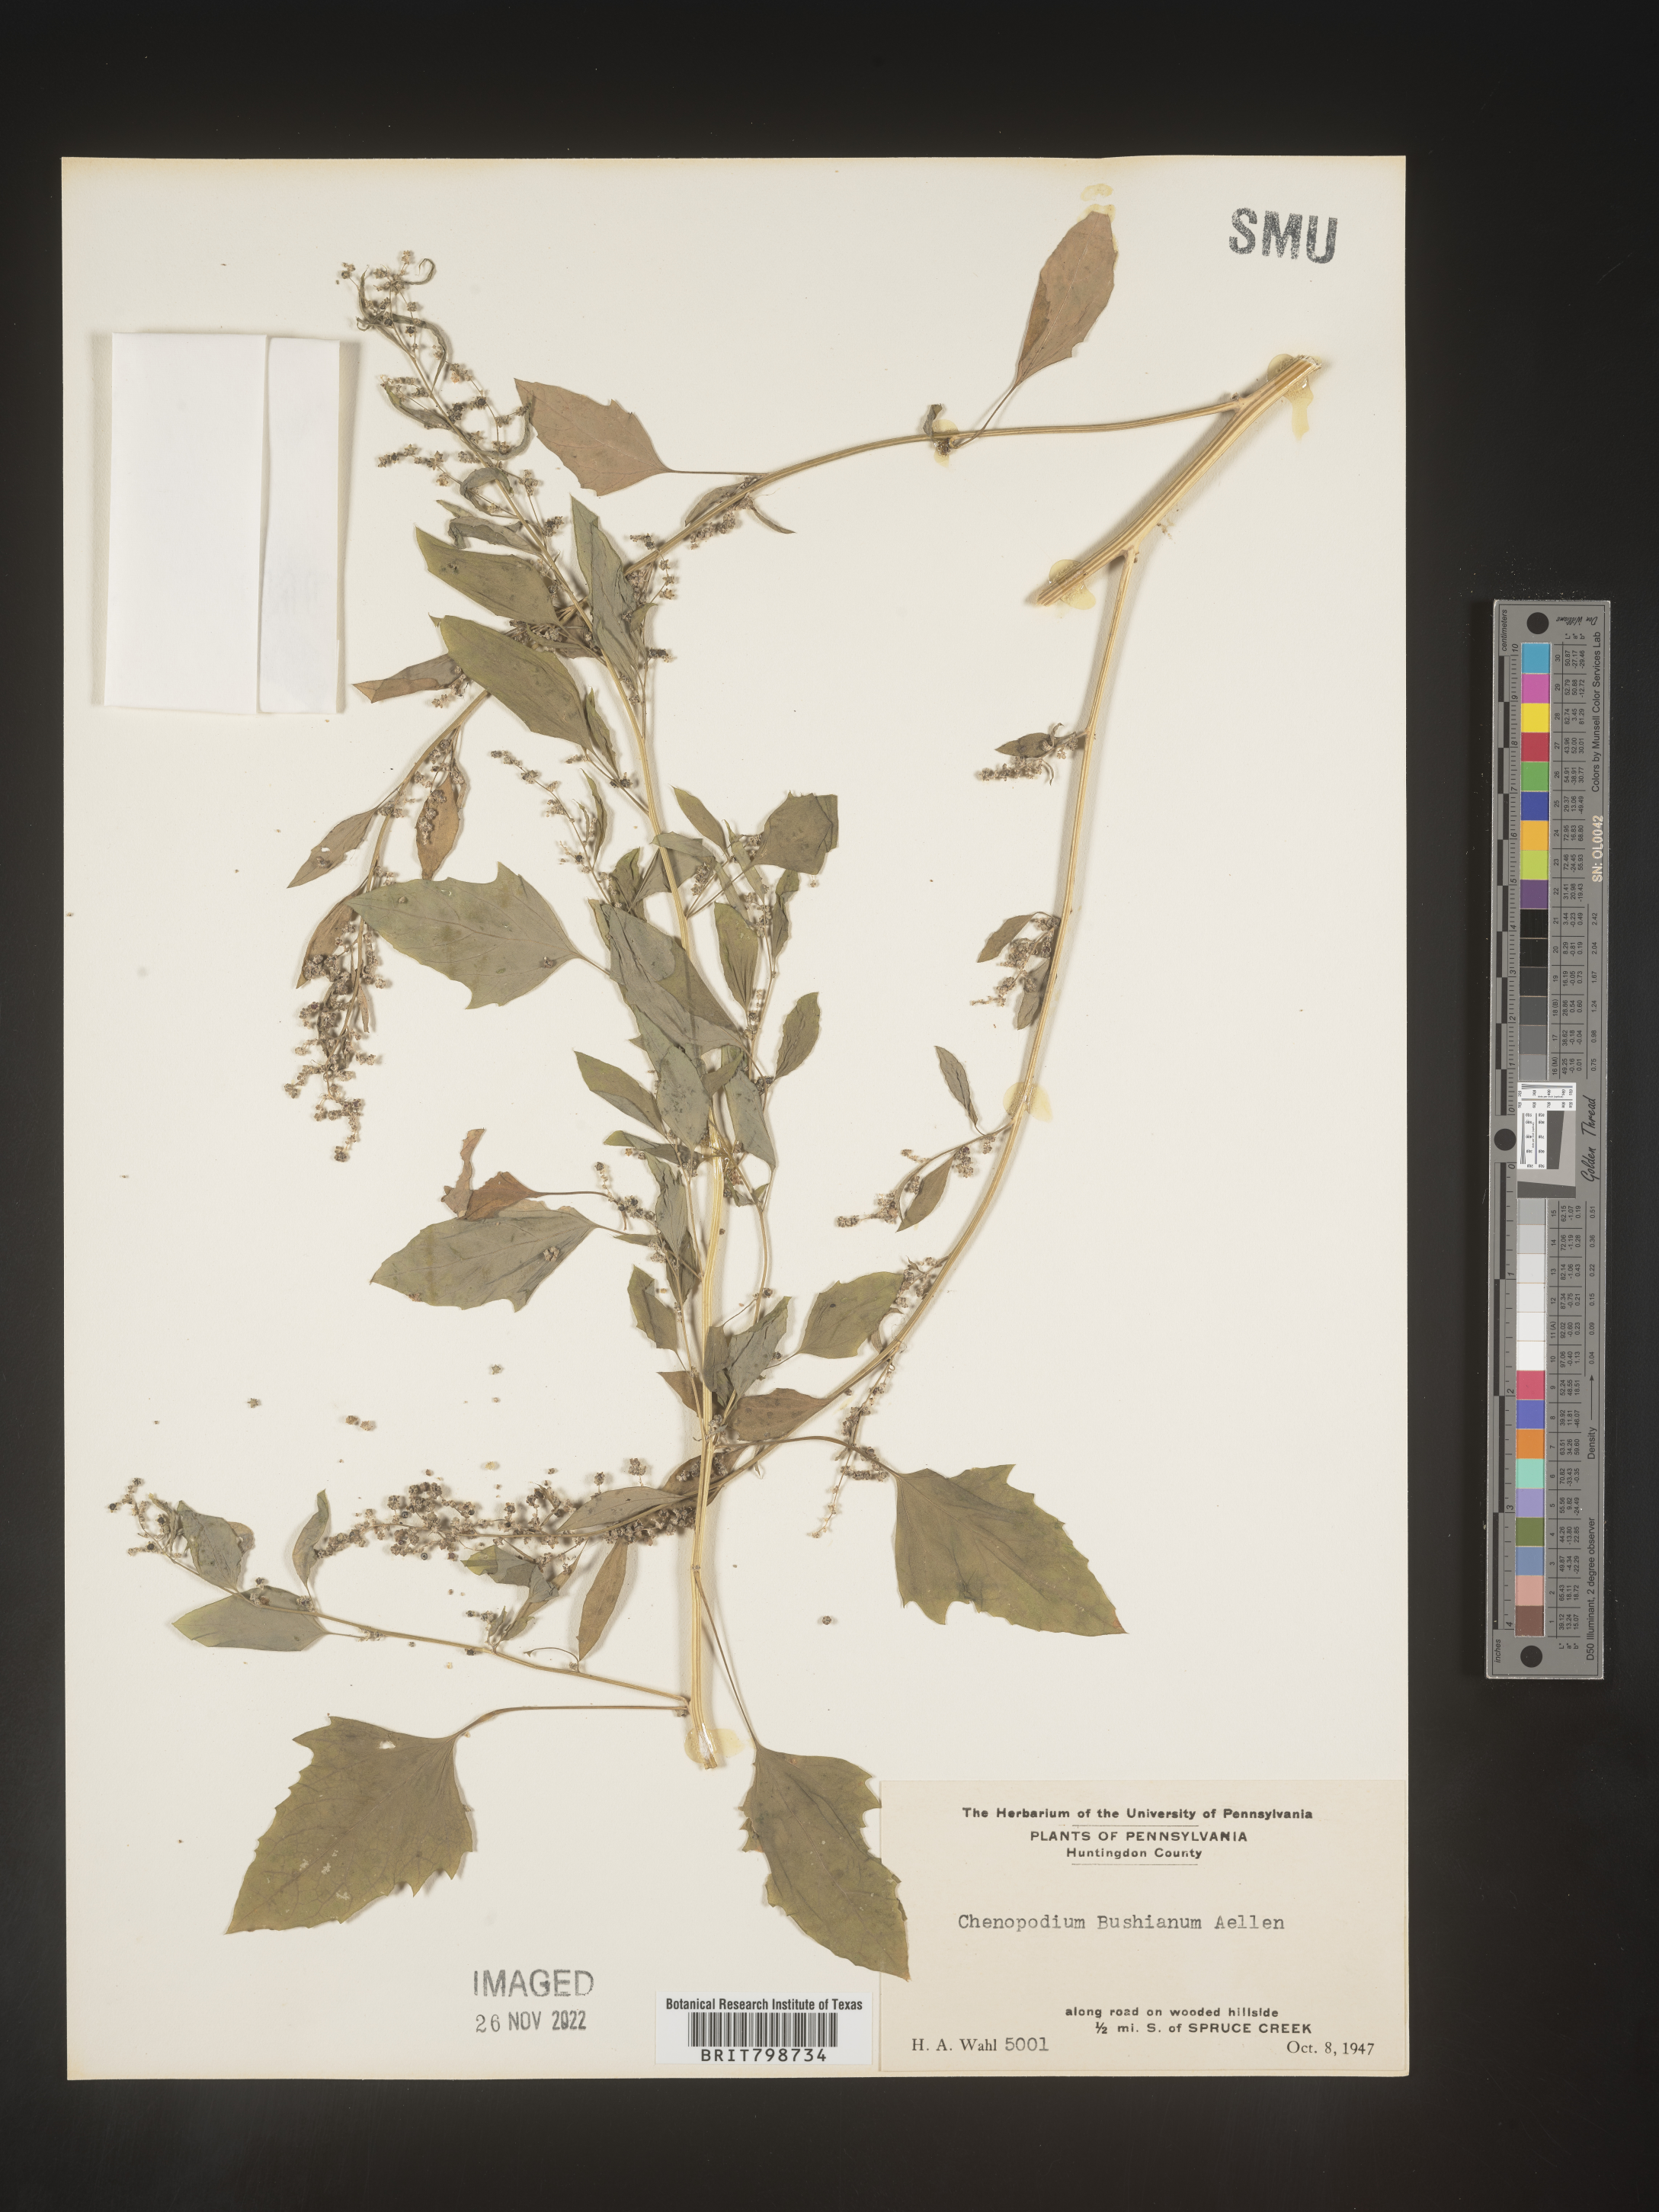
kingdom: Plantae
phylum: Tracheophyta
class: Magnoliopsida
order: Caryophyllales
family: Amaranthaceae
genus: Chenopodium
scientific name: Chenopodium berlandieri
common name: Pit-seed goosefoot
